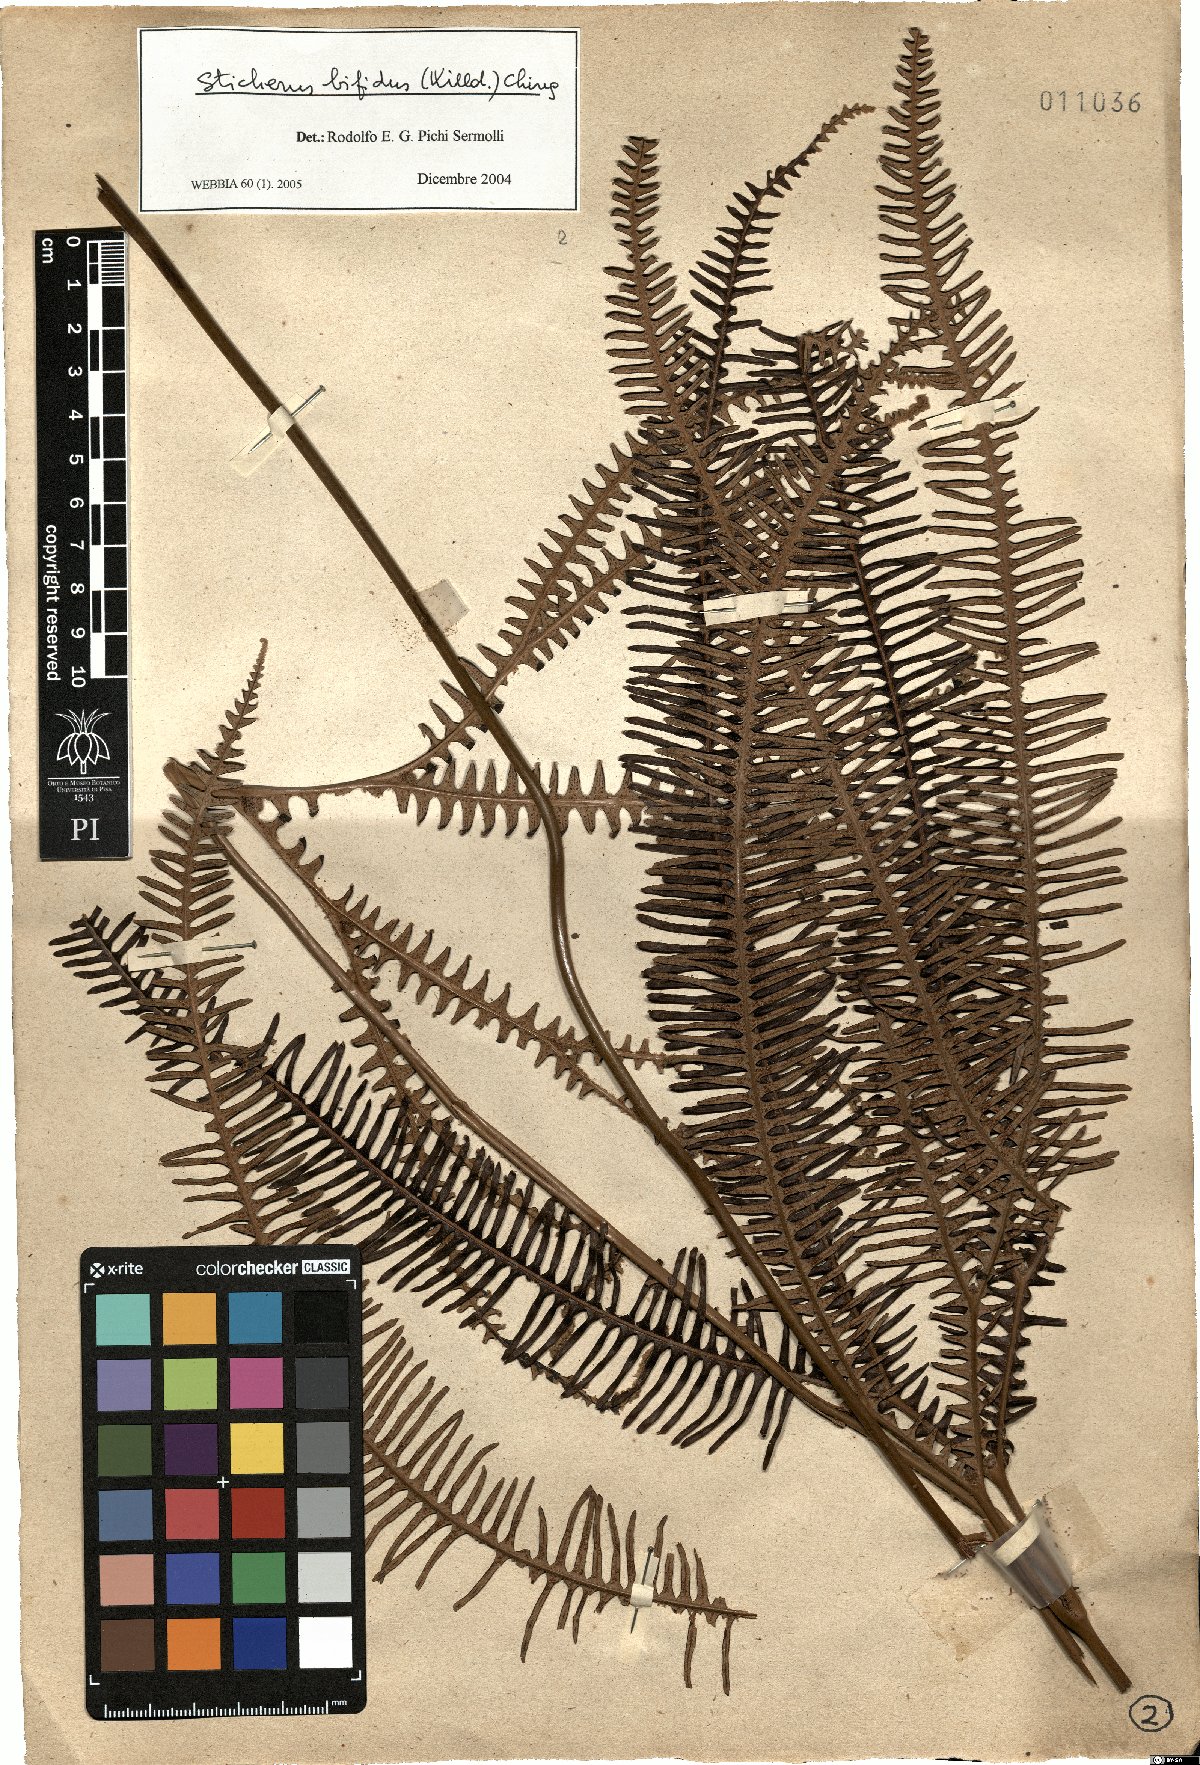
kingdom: Plantae
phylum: Tracheophyta
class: Polypodiopsida
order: Gleicheniales
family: Gleicheniaceae
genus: Sticherus
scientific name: Sticherus bifidus
